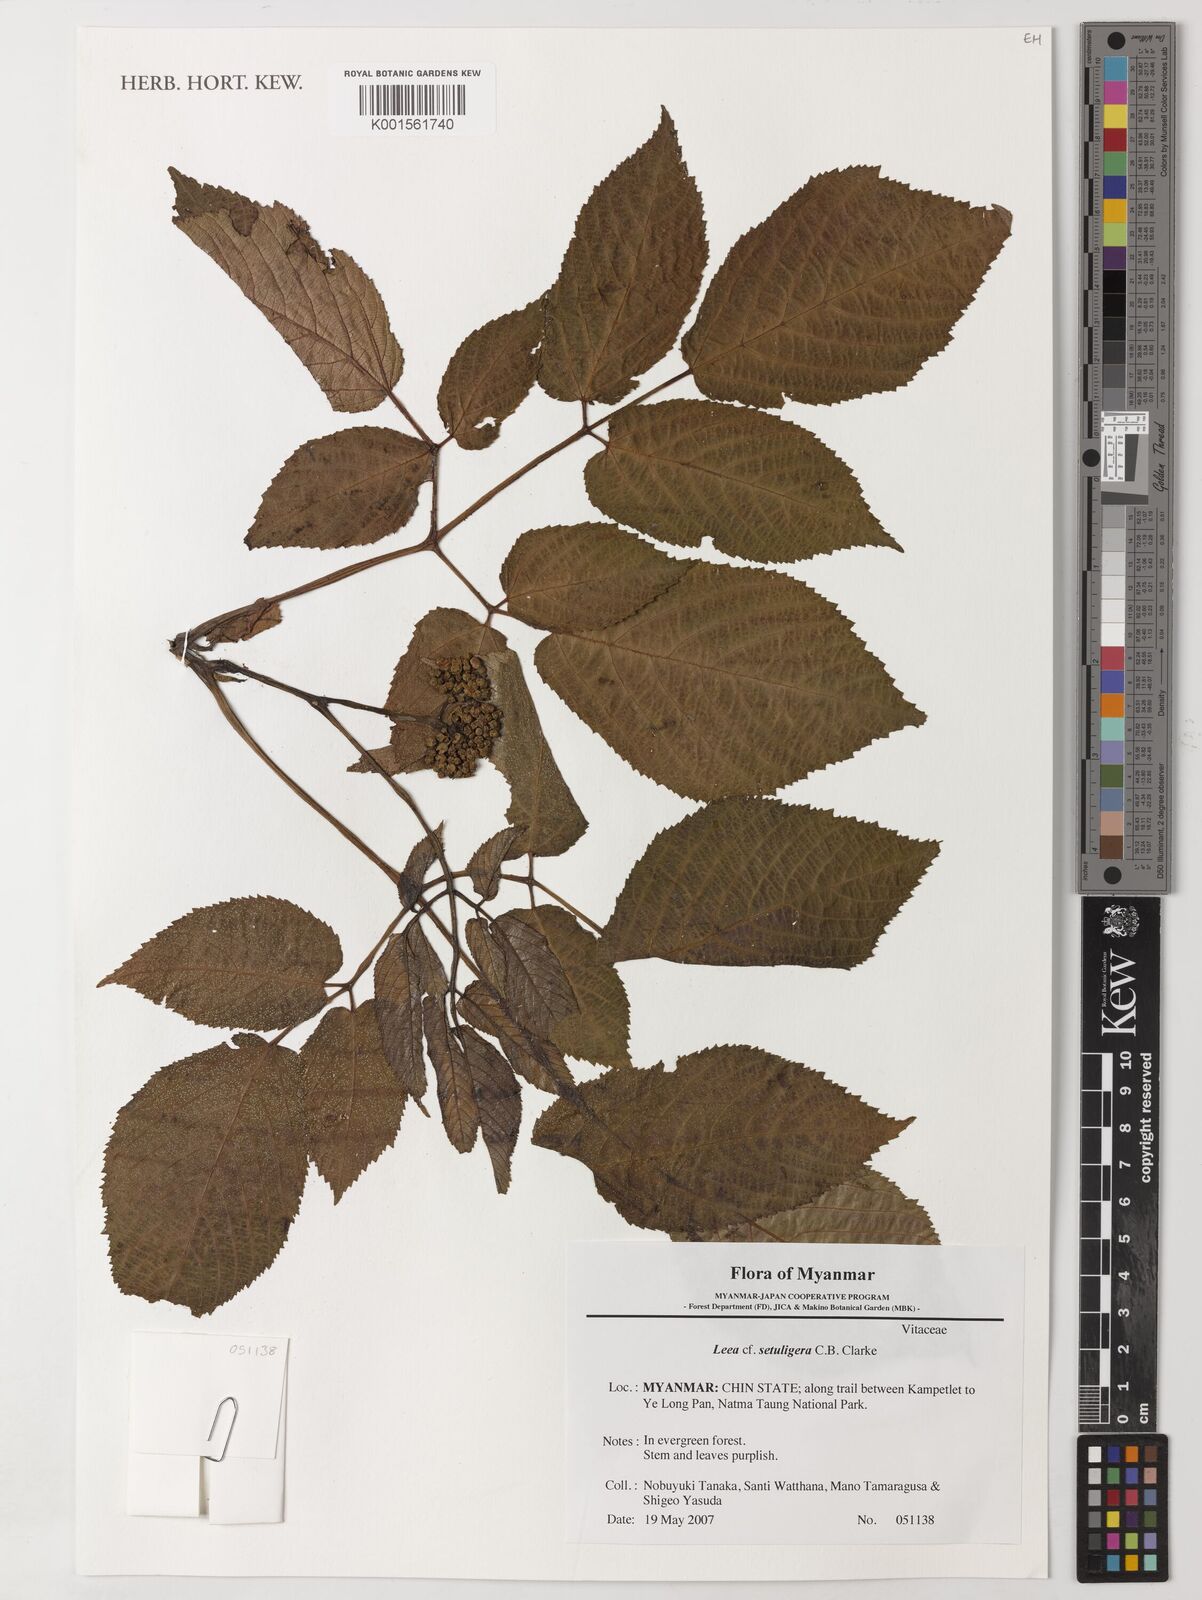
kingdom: Plantae
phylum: Tracheophyta
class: Magnoliopsida
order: Vitales
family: Vitaceae
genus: Leea
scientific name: Leea setuligera
